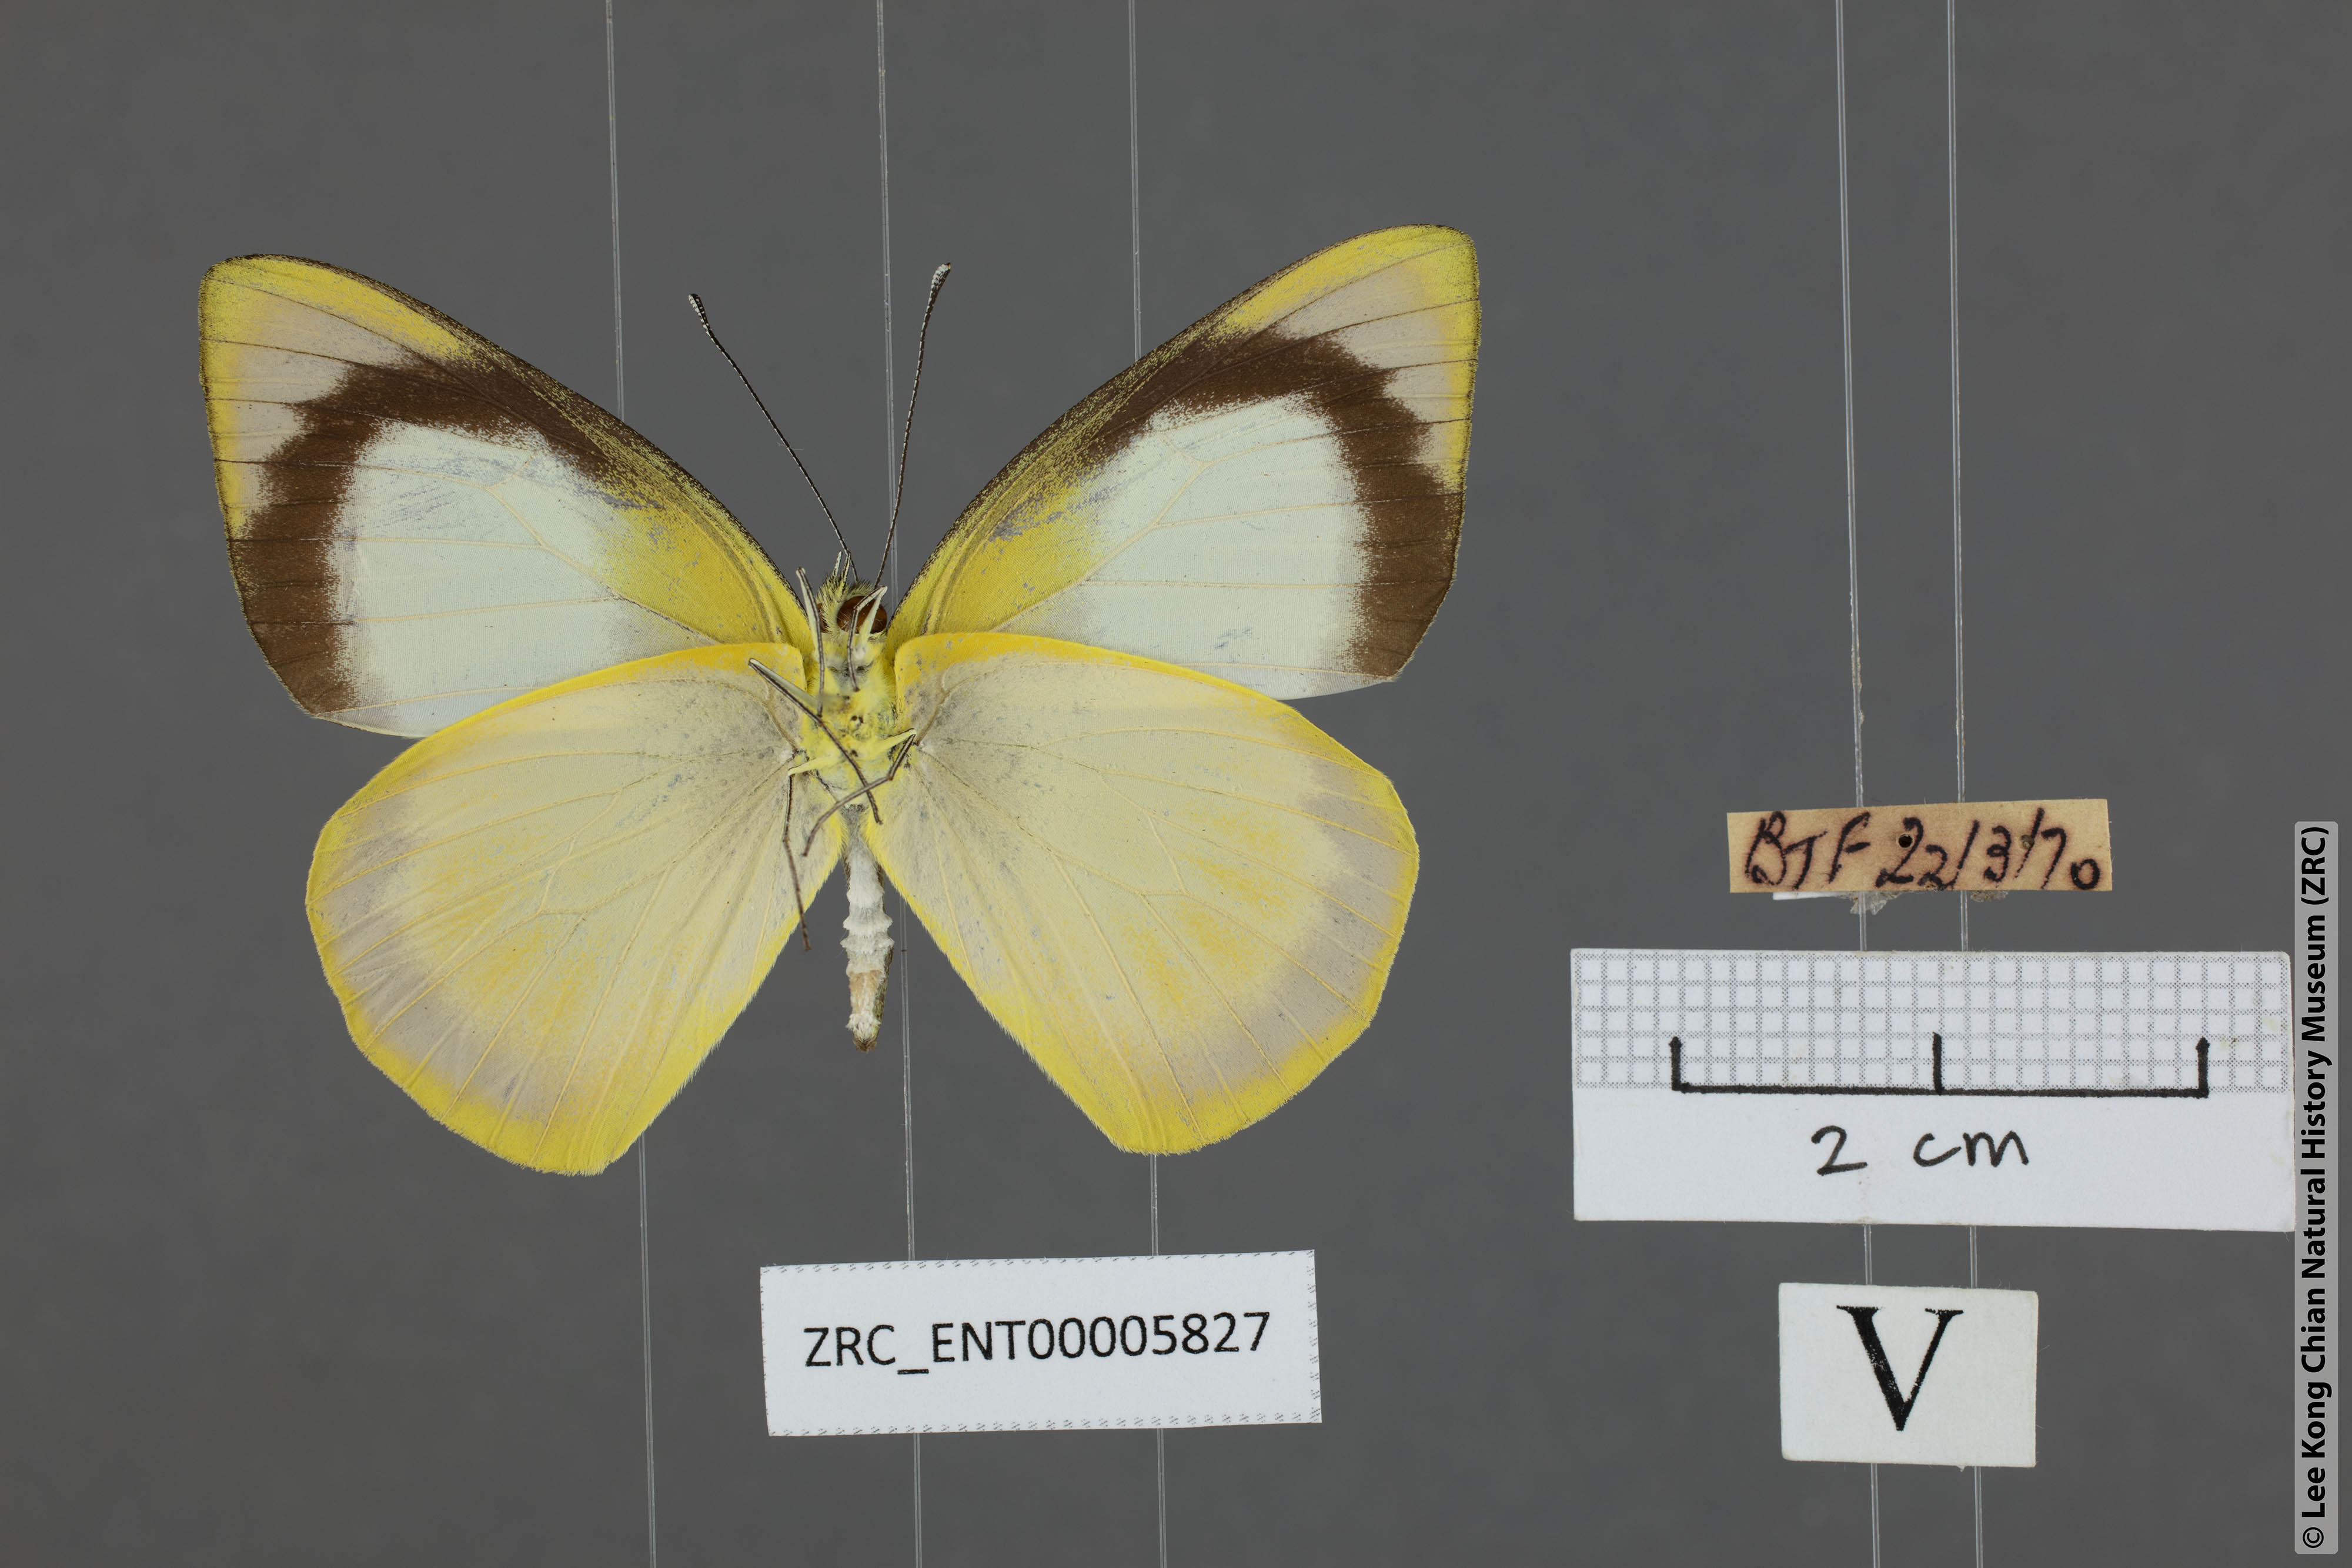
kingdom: Animalia
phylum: Arthropoda
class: Insecta
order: Lepidoptera
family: Pieridae
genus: Saletara
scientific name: Saletara liberia
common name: Pointed albatross
